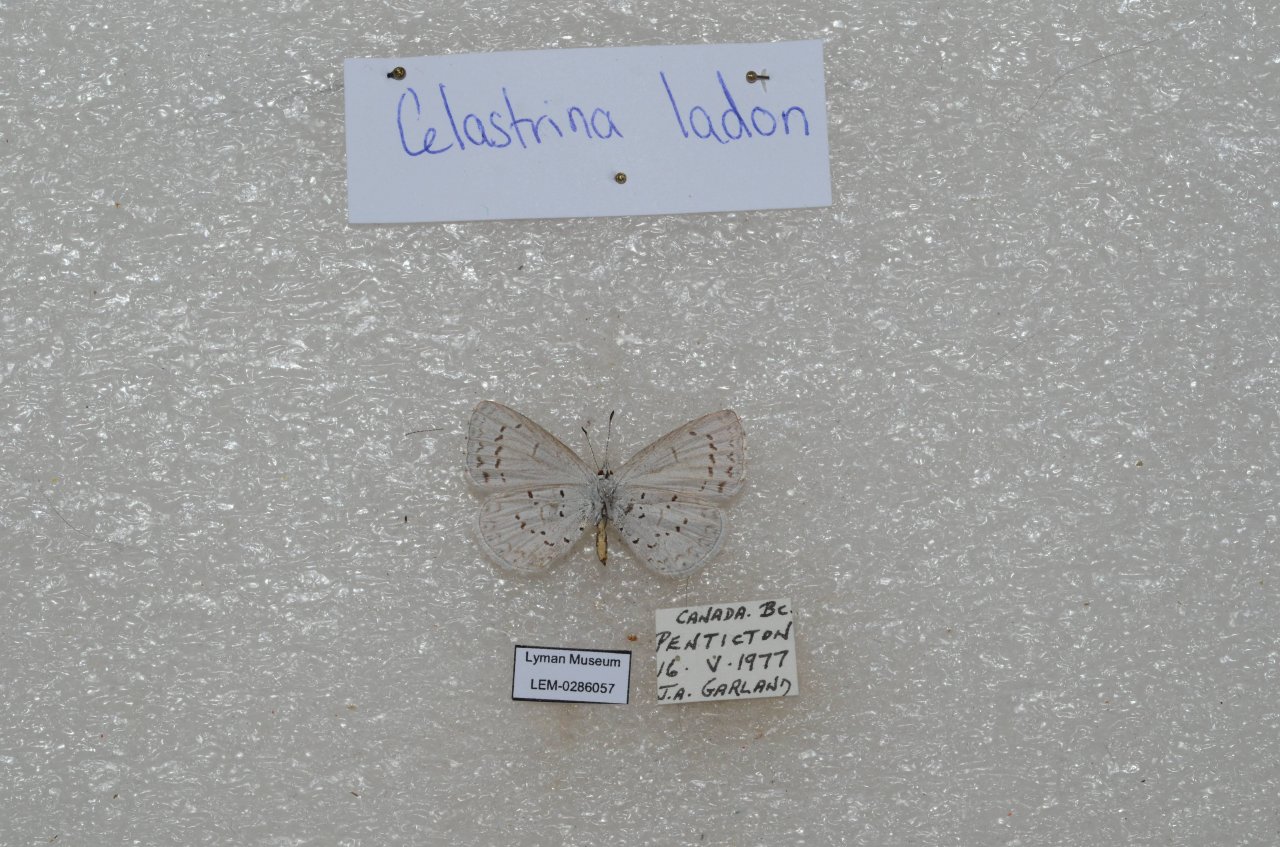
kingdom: Animalia
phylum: Arthropoda
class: Insecta
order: Lepidoptera
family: Lycaenidae
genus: Celastrina
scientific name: Celastrina
